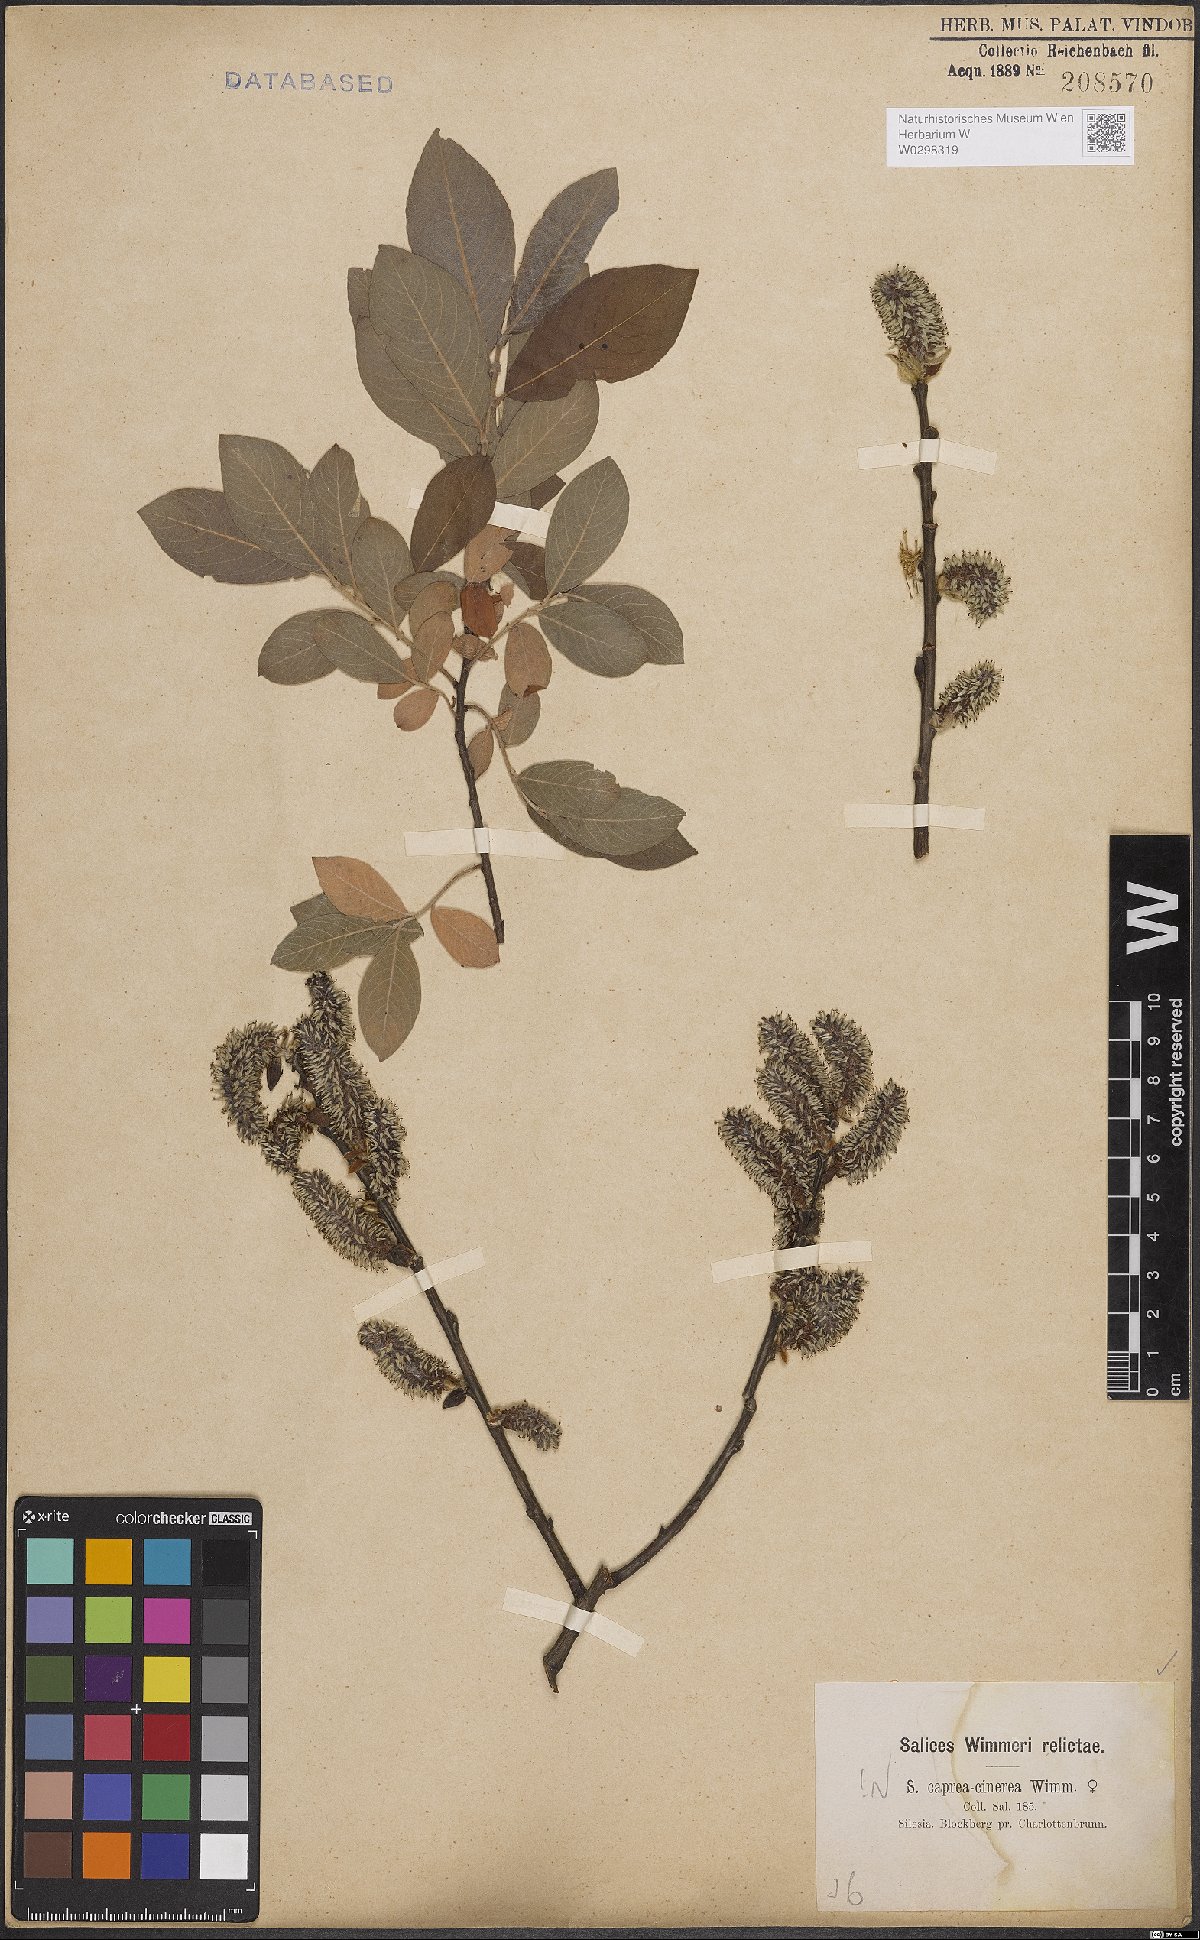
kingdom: Plantae
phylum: Tracheophyta
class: Magnoliopsida
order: Malpighiales
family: Salicaceae
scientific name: Salicaceae
